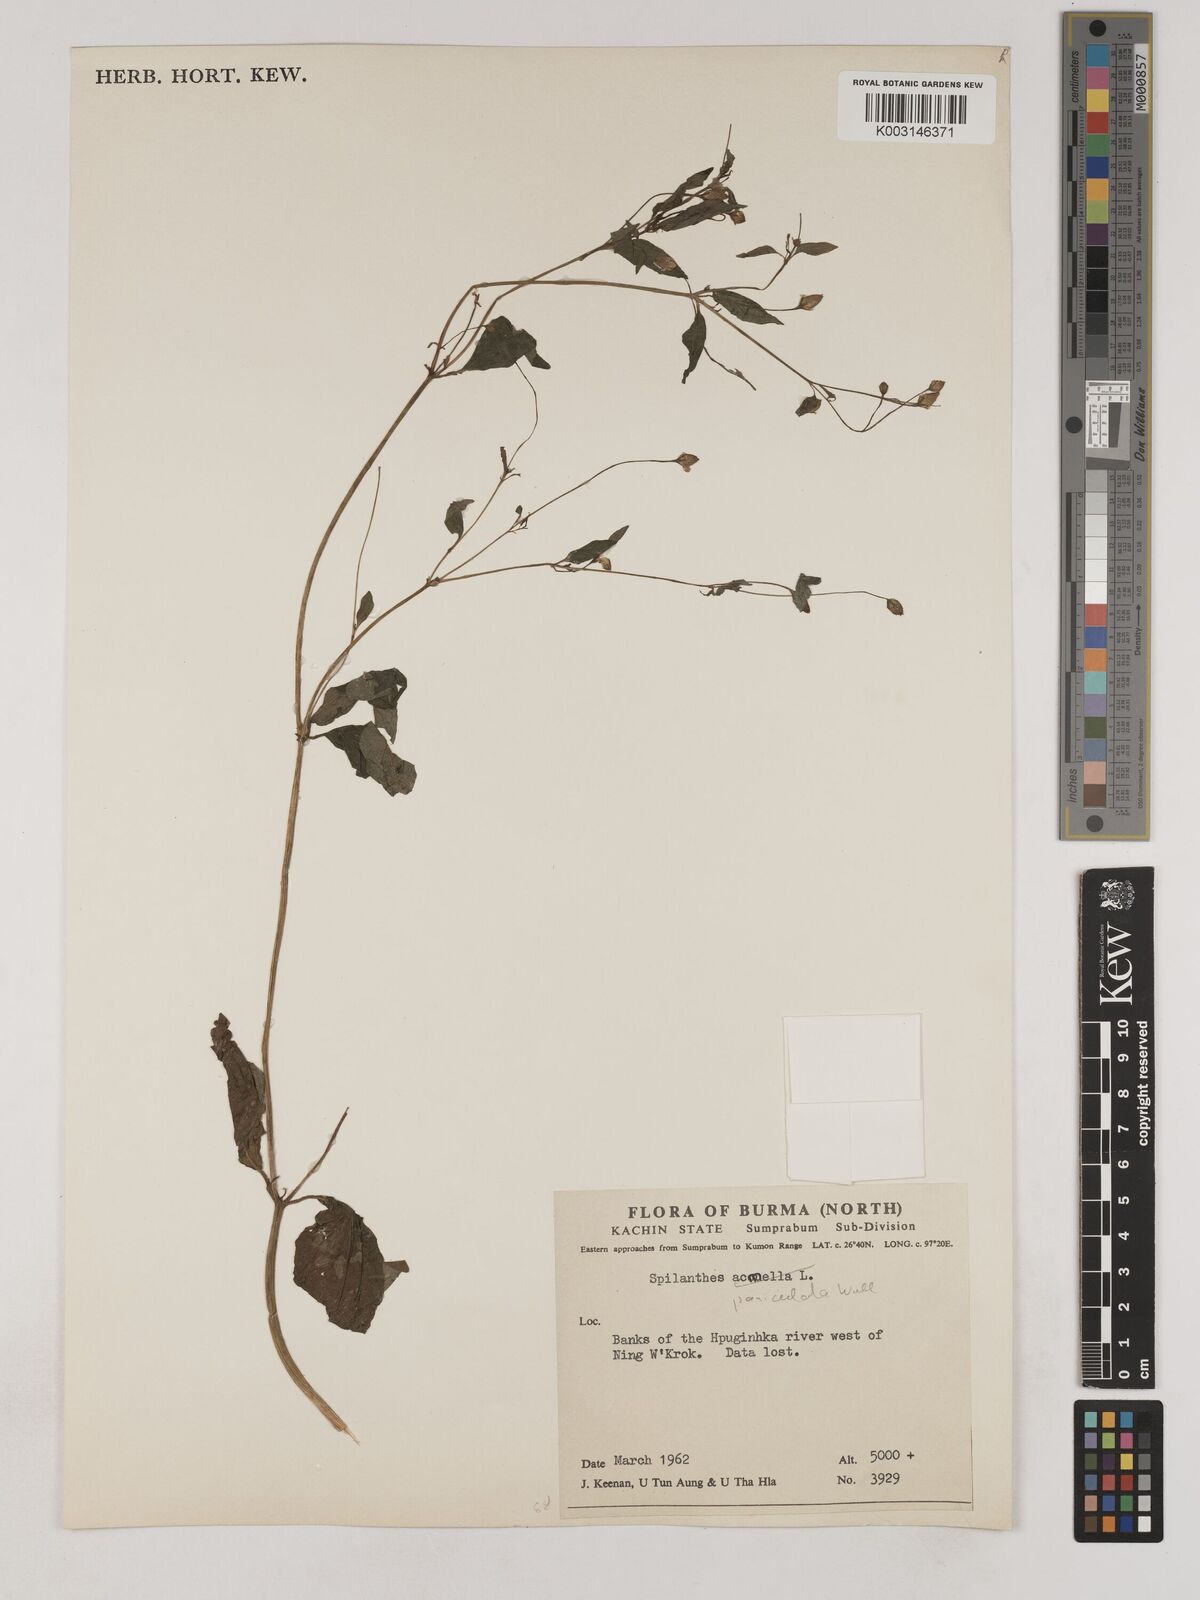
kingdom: Plantae
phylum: Tracheophyta
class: Magnoliopsida
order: Asterales
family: Asteraceae
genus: Acmella
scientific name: Acmella paniculata
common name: Panicled spot flower
